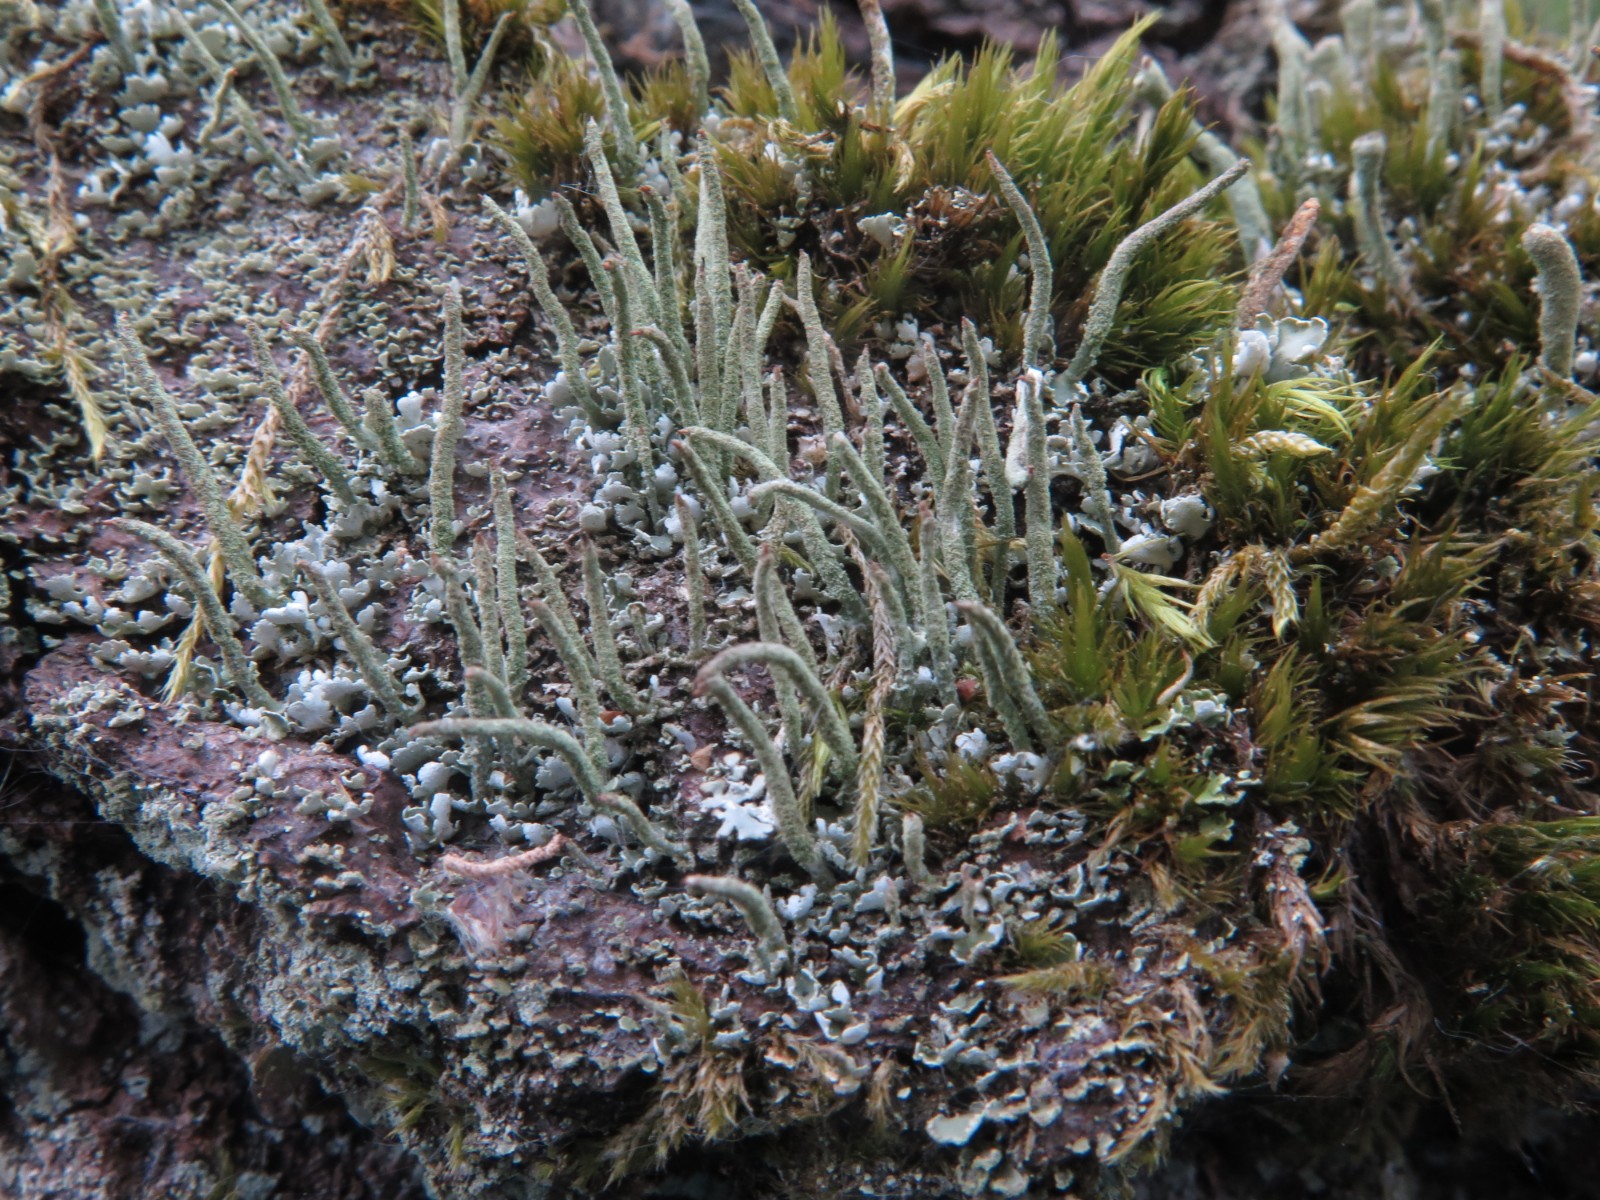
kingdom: Fungi
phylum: Ascomycota
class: Lecanoromycetes
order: Lecanorales
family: Cladoniaceae
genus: Cladonia
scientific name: Cladonia coniocraea
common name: træfods-bægerlav
